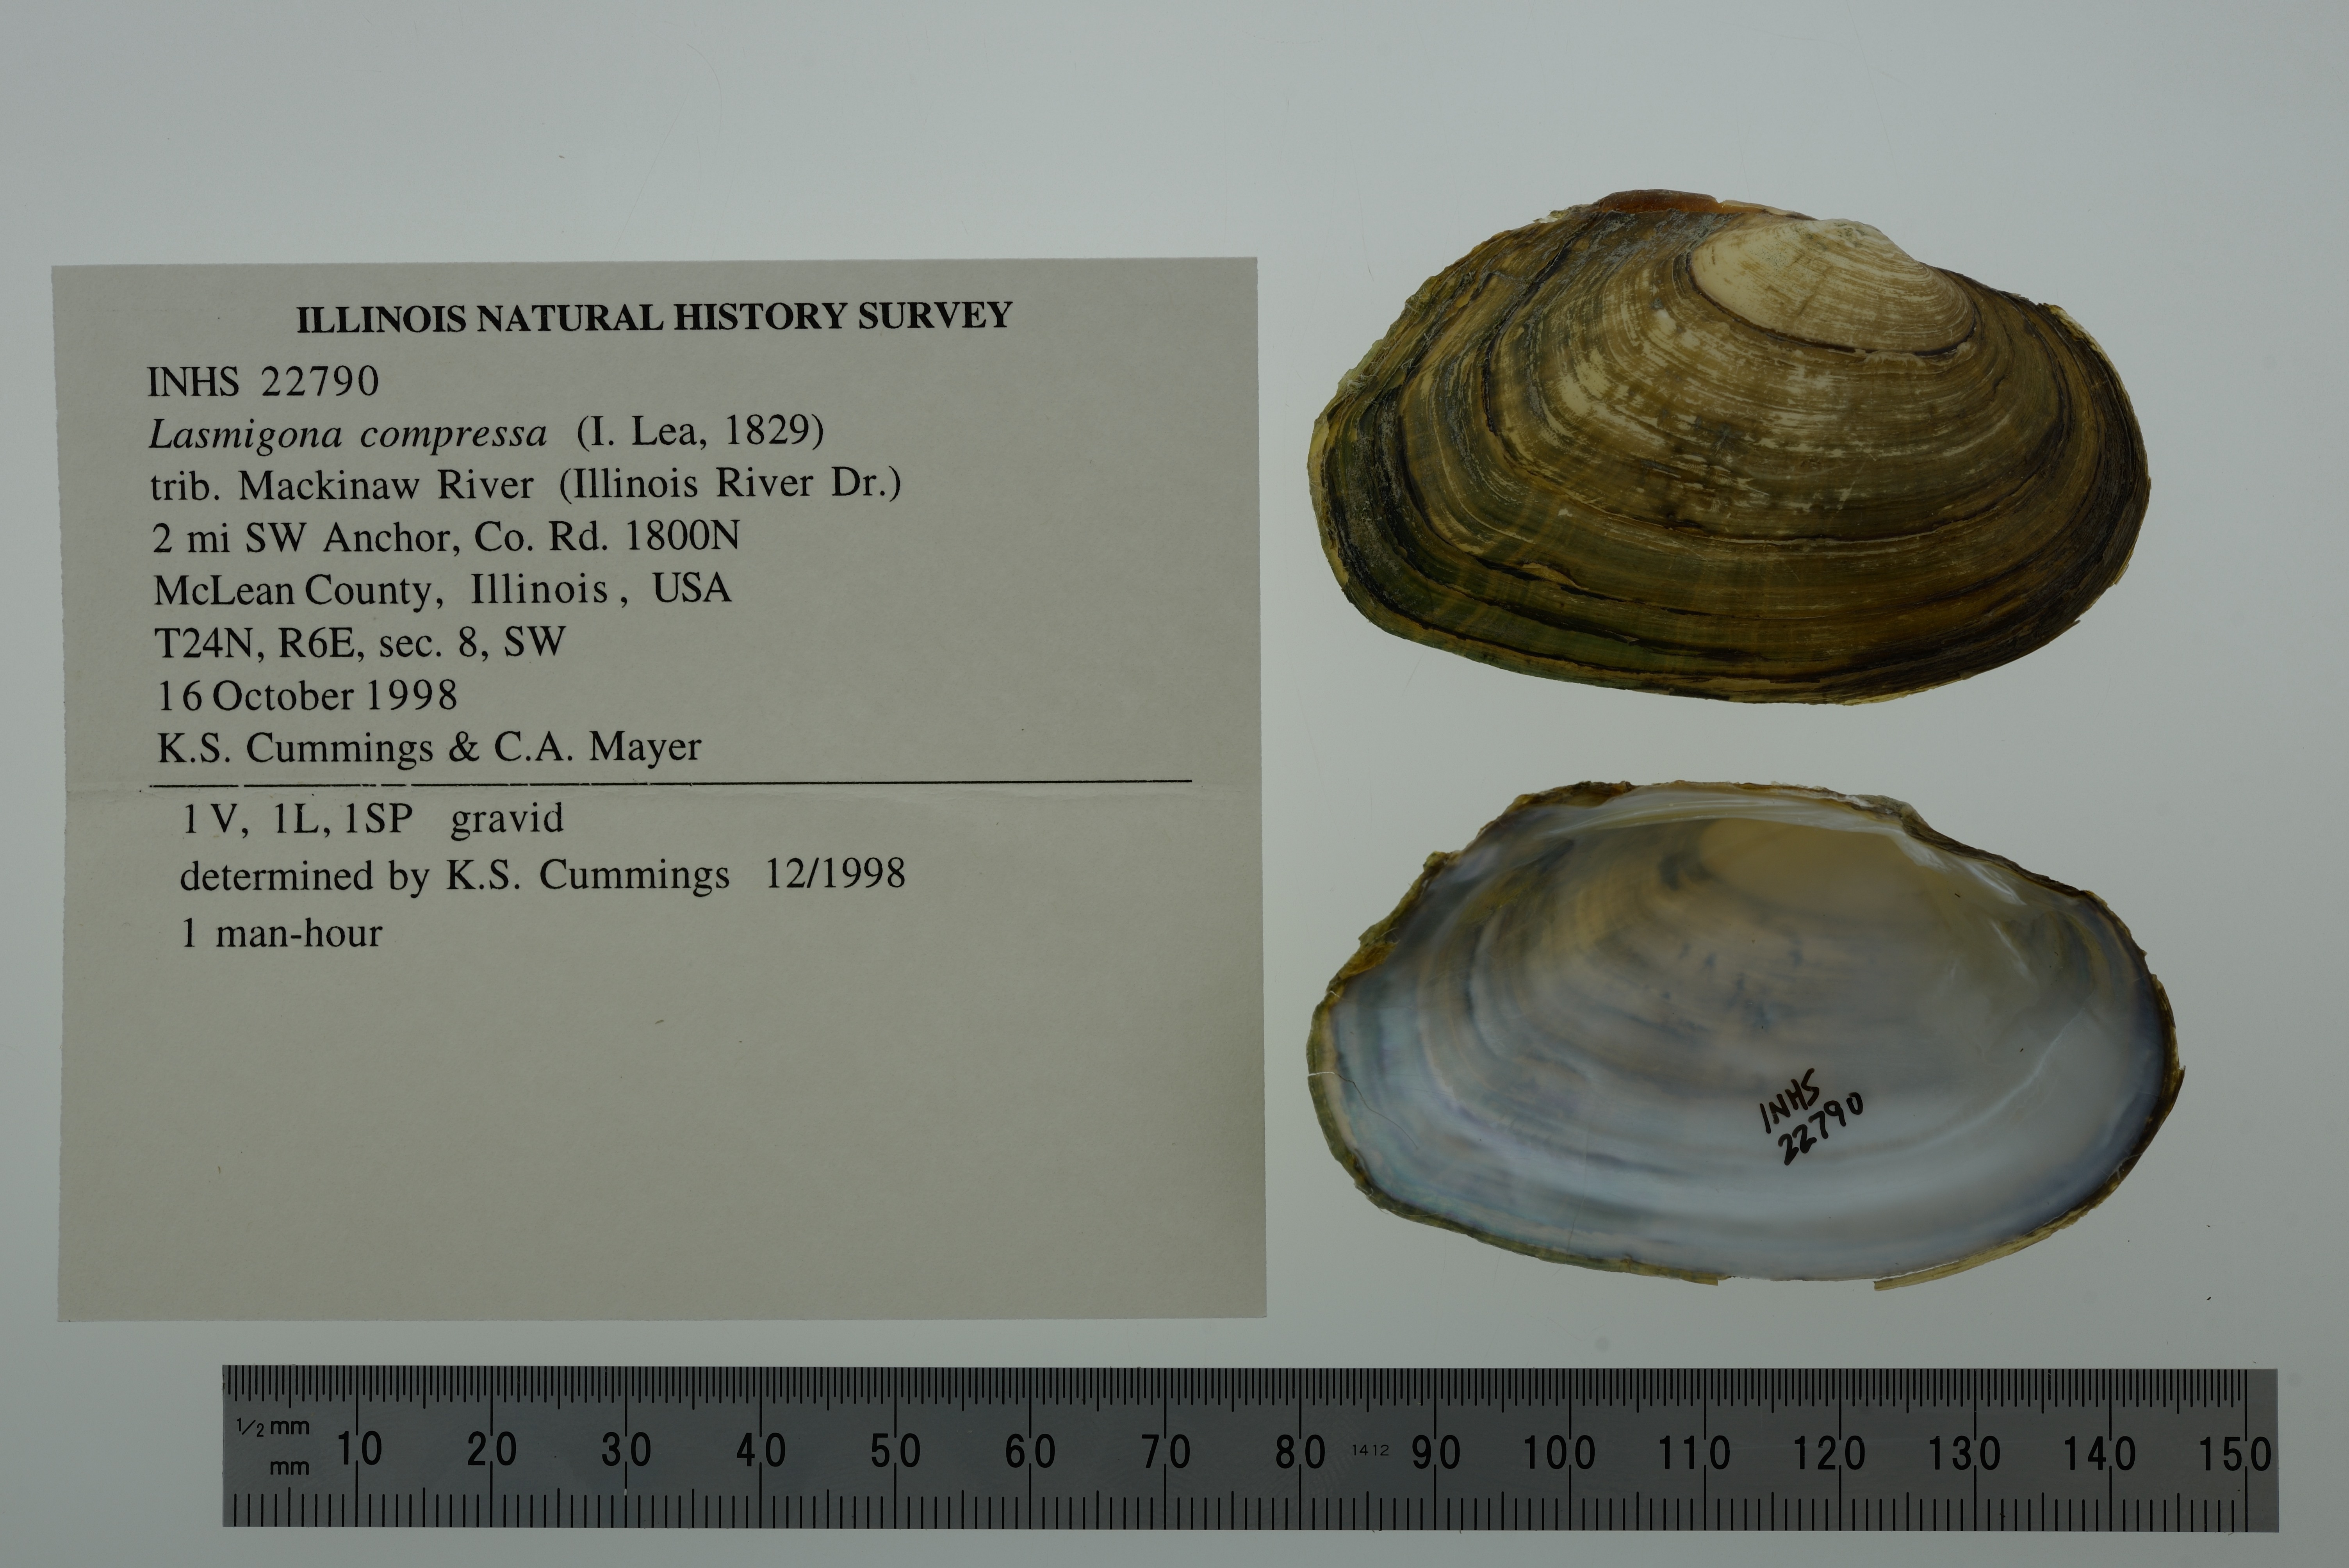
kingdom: Animalia
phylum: Mollusca
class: Bivalvia
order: Unionida
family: Unionidae
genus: Lasmigona
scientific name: Lasmigona compressa
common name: Creek heelsplitter
